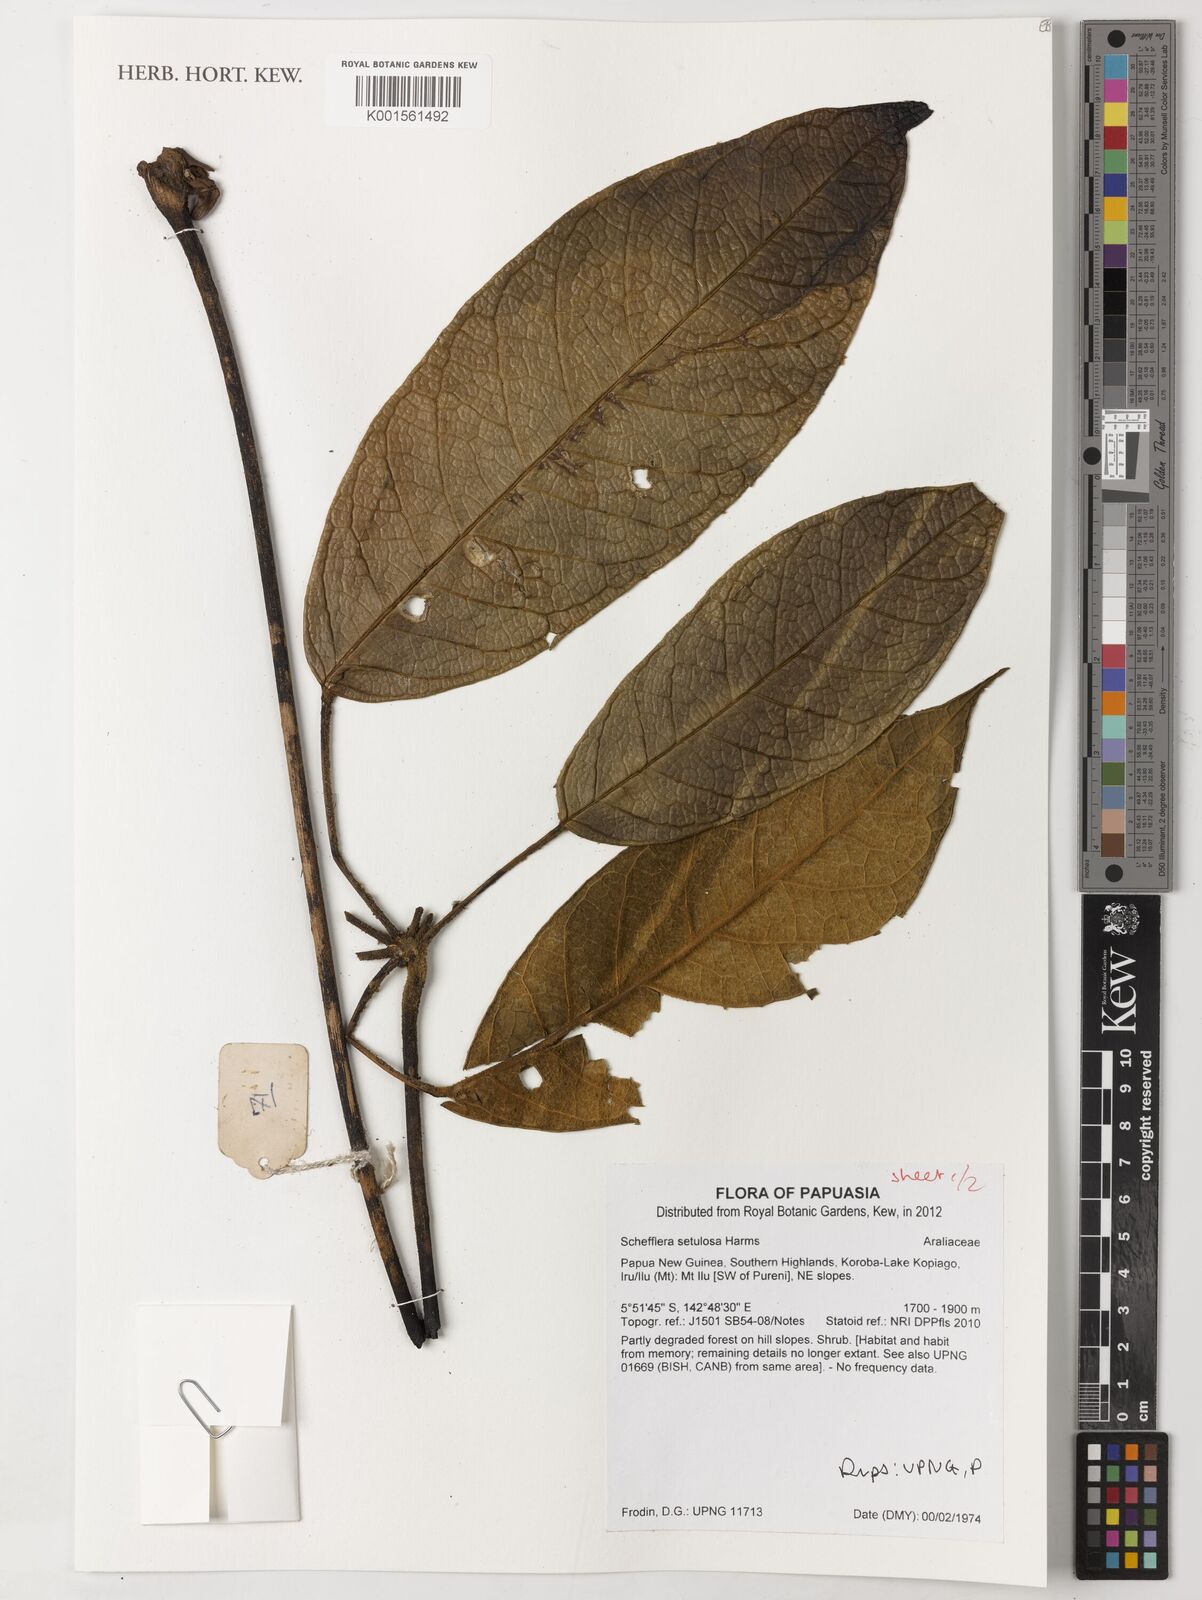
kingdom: Plantae
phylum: Tracheophyta
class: Magnoliopsida
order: Apiales
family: Araliaceae
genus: Heptapleurum
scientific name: Heptapleurum setulosum
